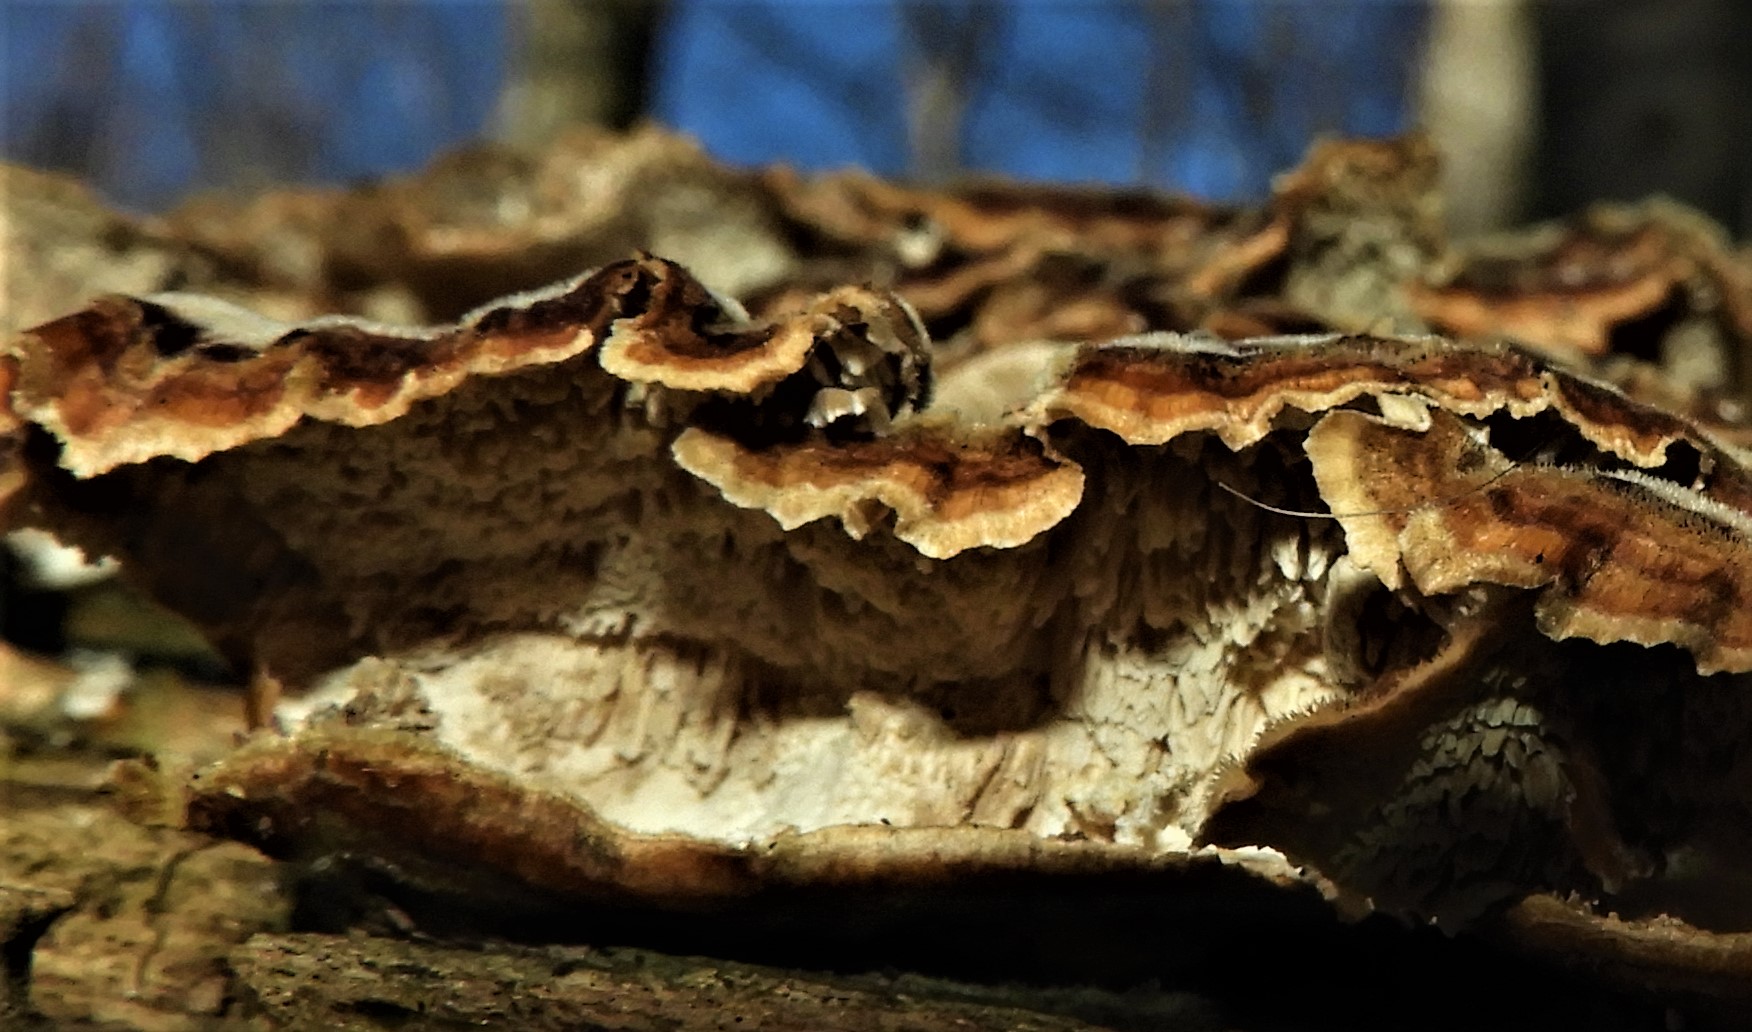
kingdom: Fungi
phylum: Basidiomycota
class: Agaricomycetes
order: Polyporales
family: Polyporaceae
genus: Trametes
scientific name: Trametes versicolor
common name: broget læderporesvamp
